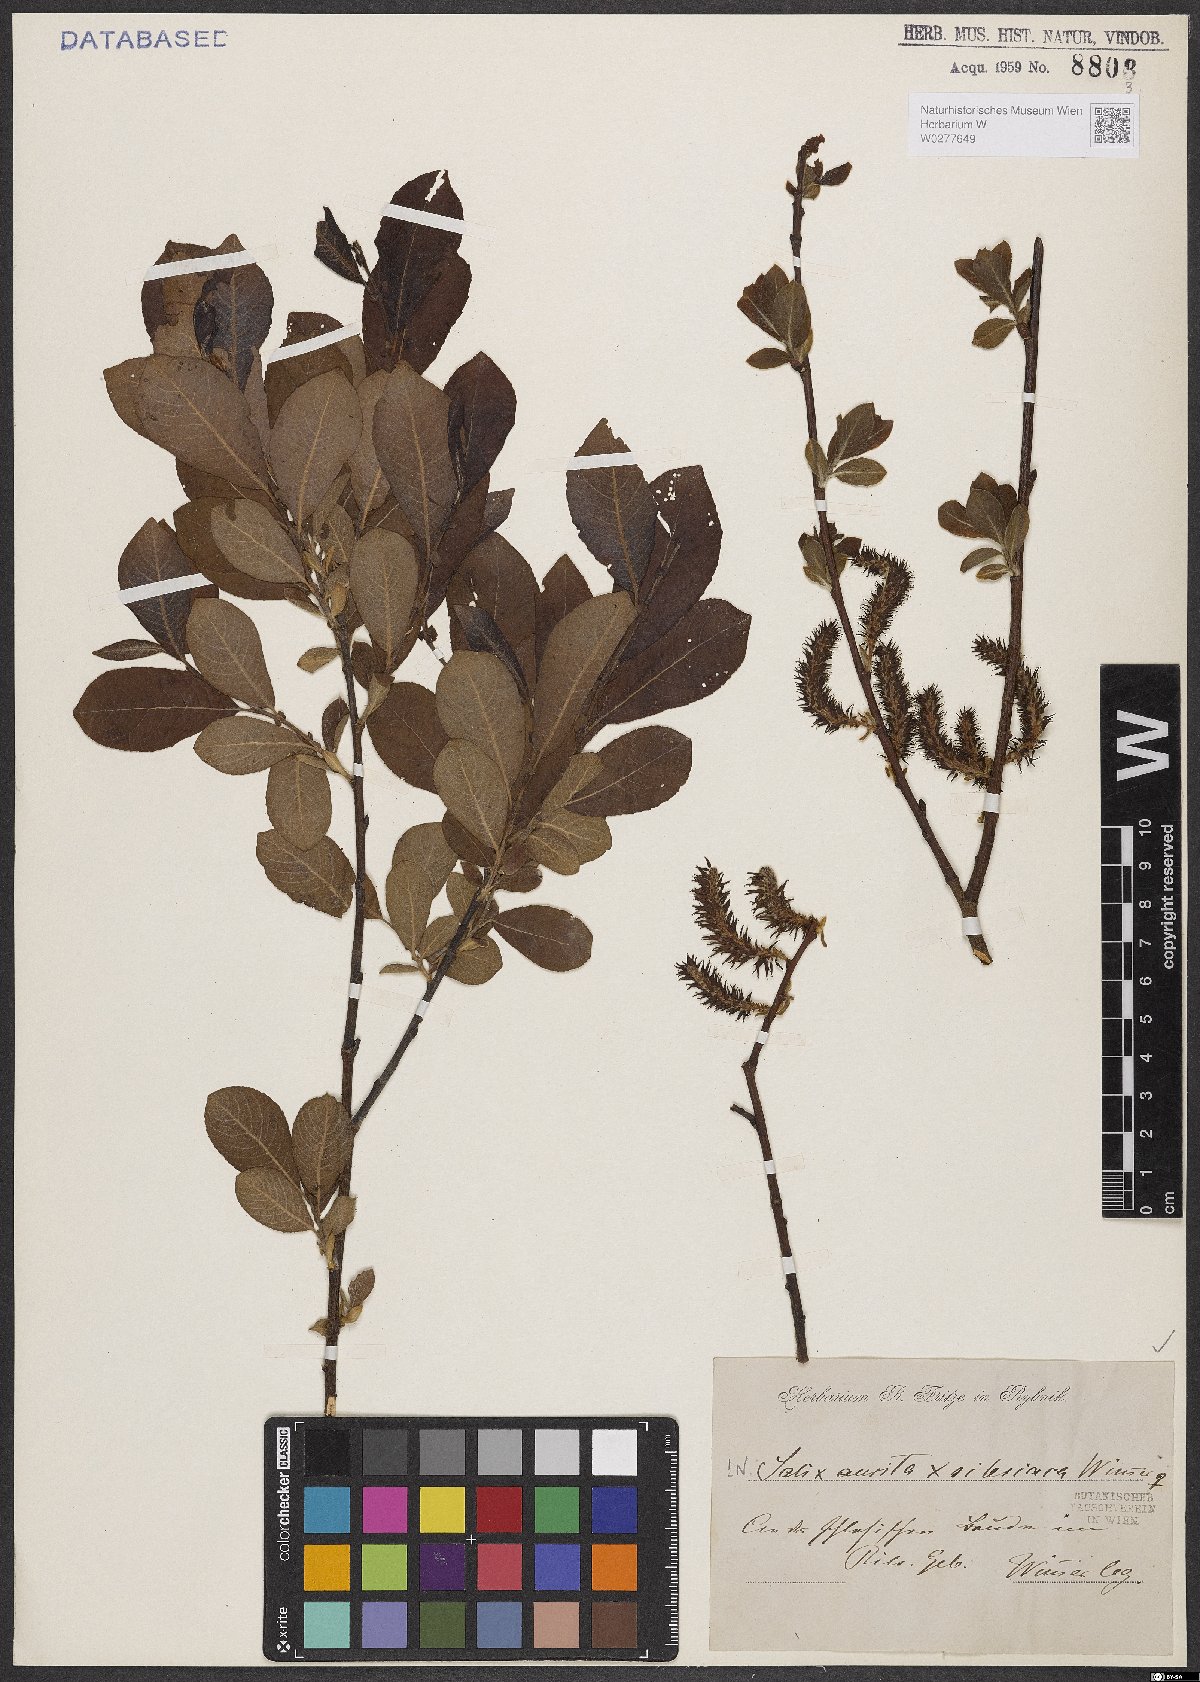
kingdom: Plantae
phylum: Tracheophyta
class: Magnoliopsida
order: Malpighiales
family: Salicaceae
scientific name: Salicaceae
